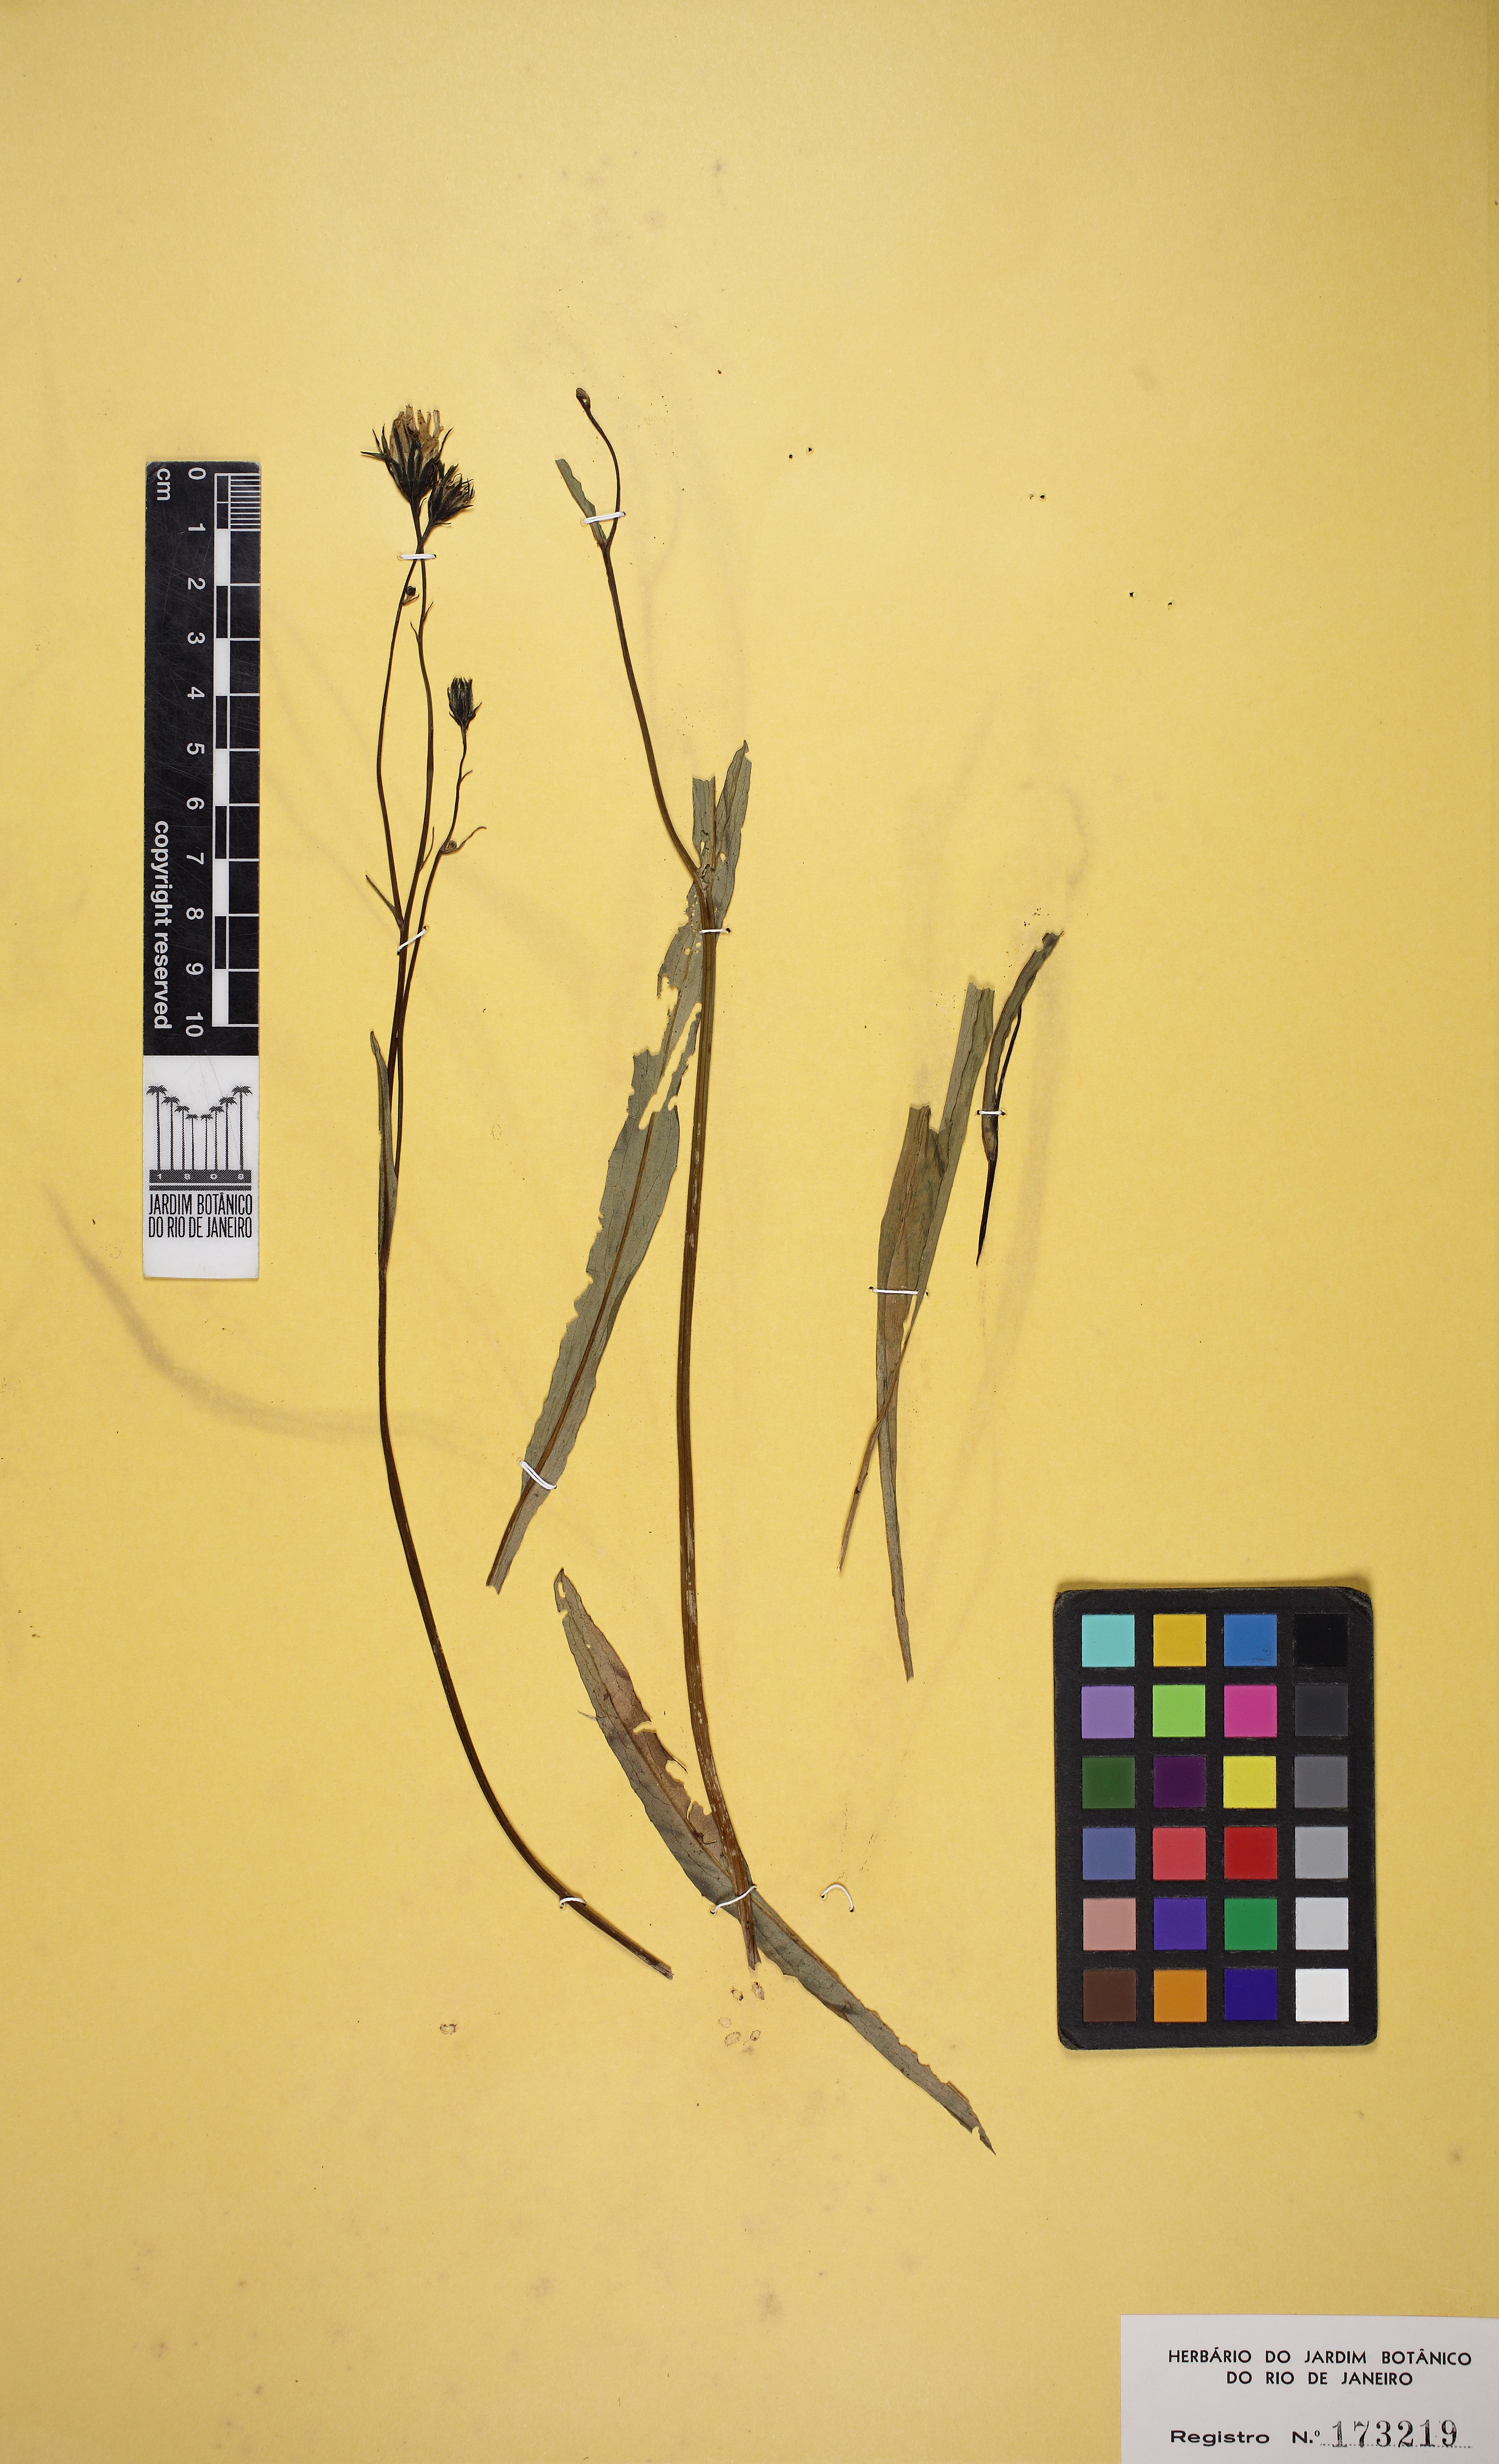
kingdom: Plantae
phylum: Tracheophyta
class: Magnoliopsida
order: Asterales
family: Asteraceae
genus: Hypochaeris
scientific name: Hypochaeris lutea
